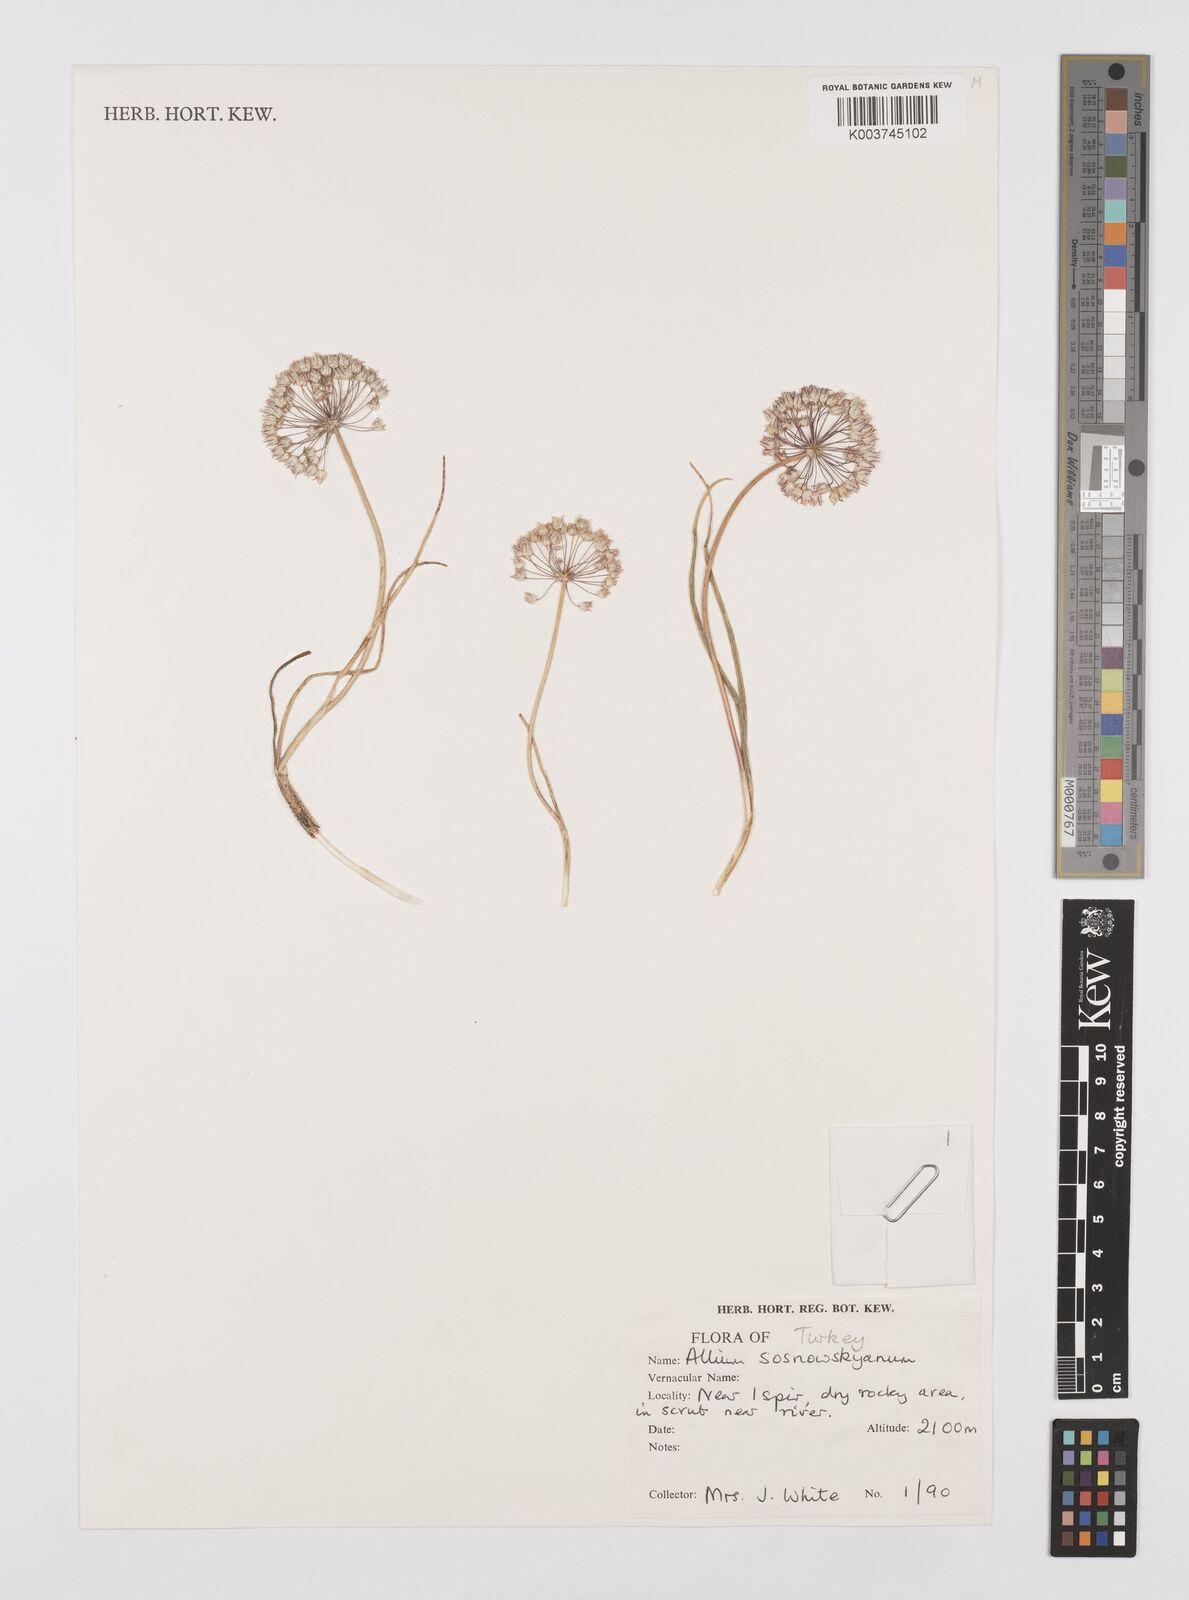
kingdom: Plantae
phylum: Tracheophyta
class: Liliopsida
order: Asparagales
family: Amaryllidaceae
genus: Allium
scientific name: Allium sosnovskyanum
